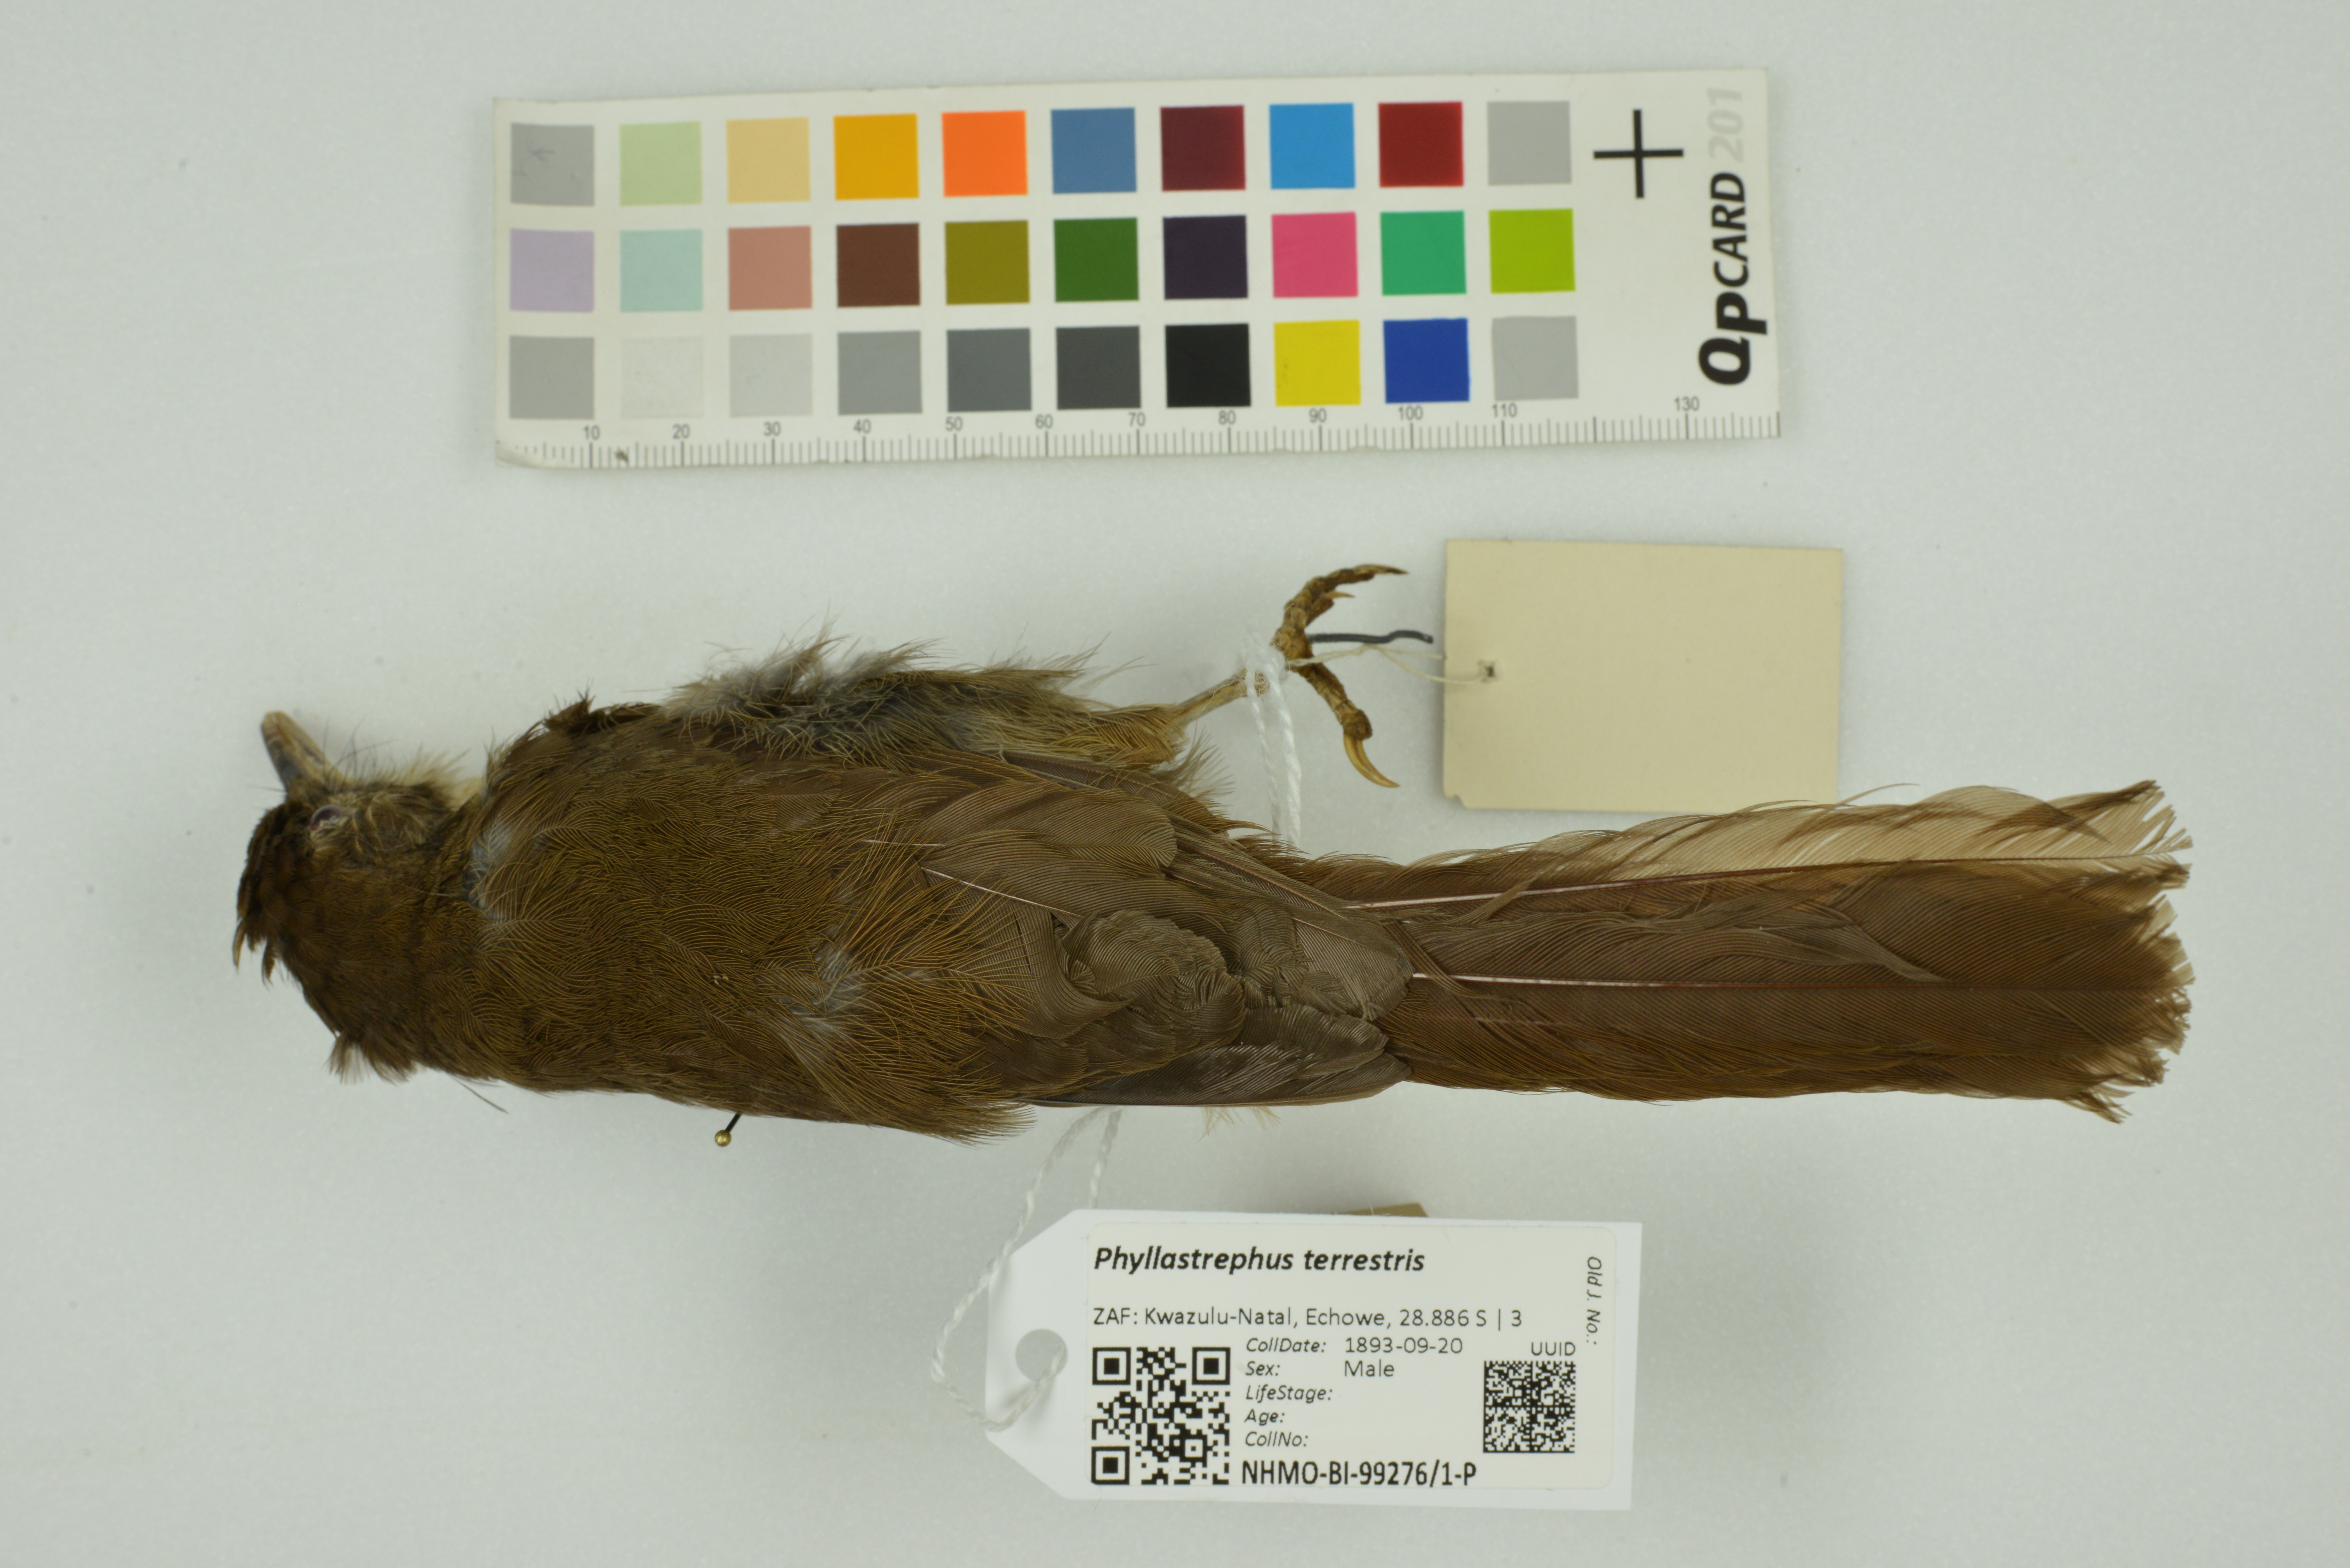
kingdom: Animalia
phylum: Chordata
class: Aves
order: Passeriformes
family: Pycnonotidae
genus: Phyllastrephus
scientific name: Phyllastrephus terrestris
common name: Terrestrial brownbul
